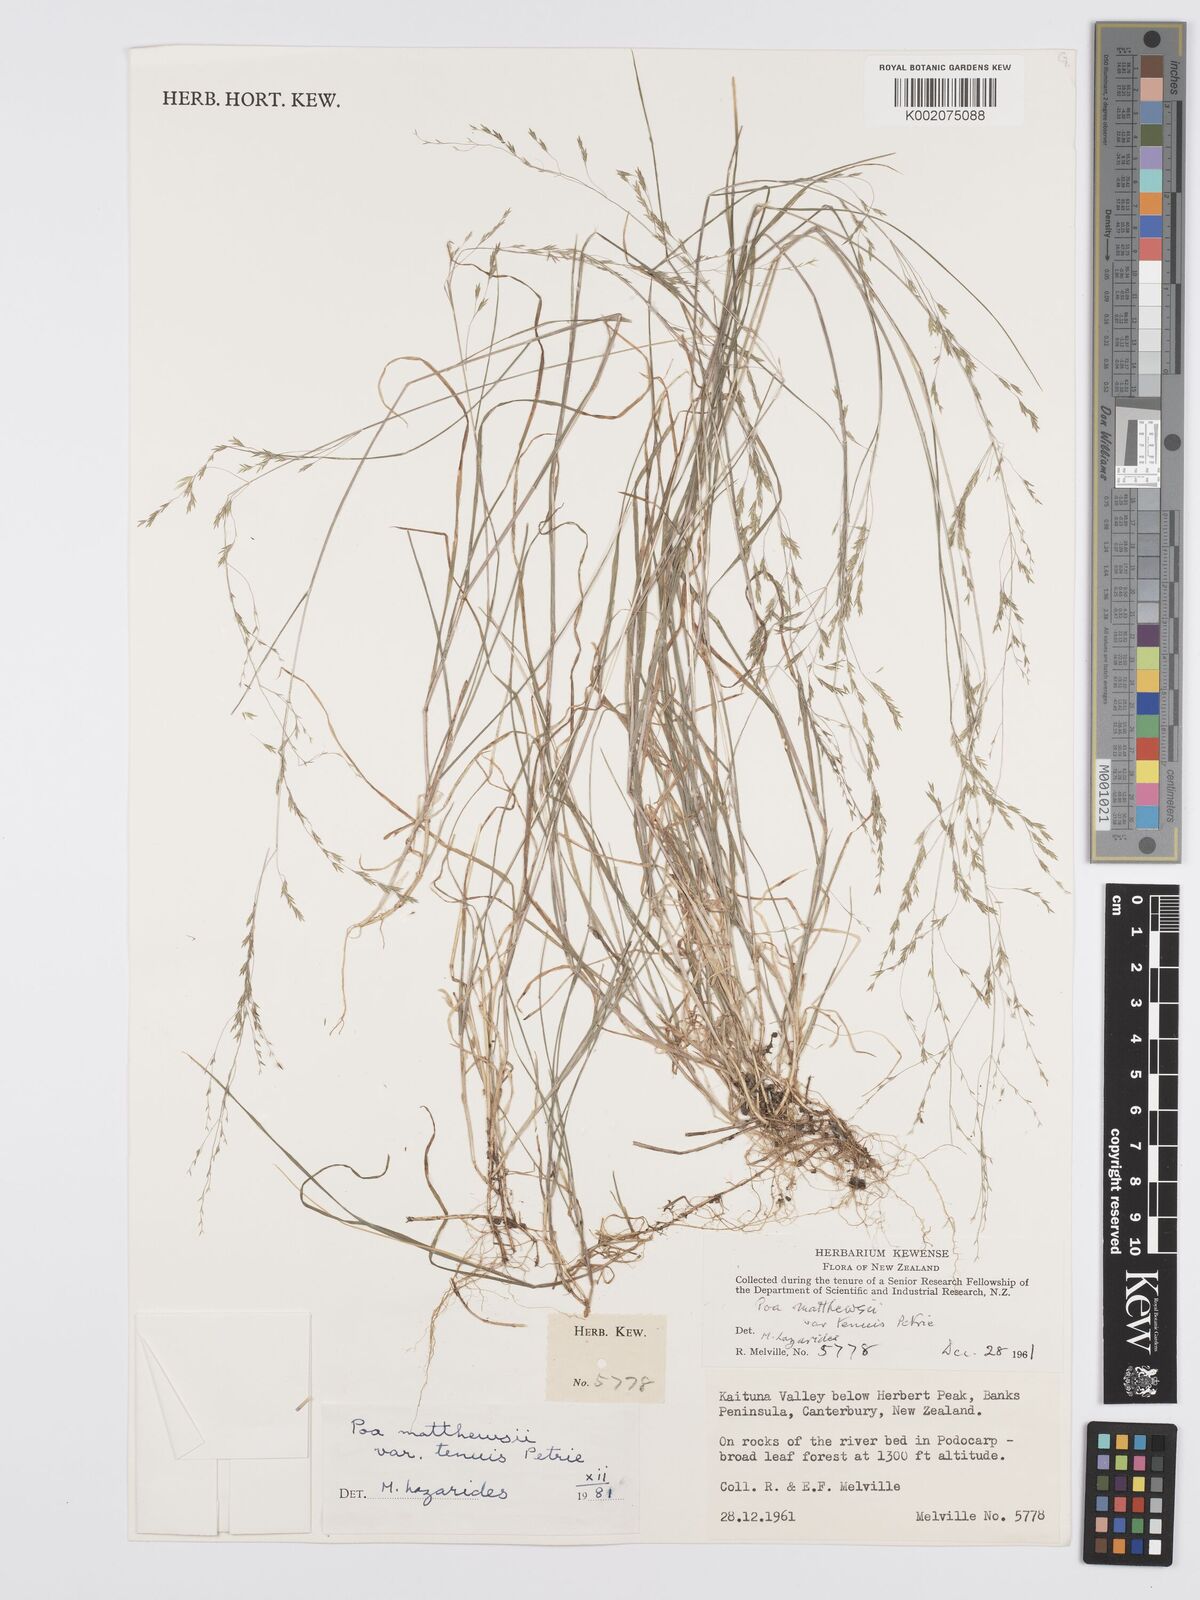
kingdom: Plantae
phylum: Tracheophyta
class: Liliopsida
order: Poales
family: Poaceae
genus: Poa
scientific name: Poa matthewsii
